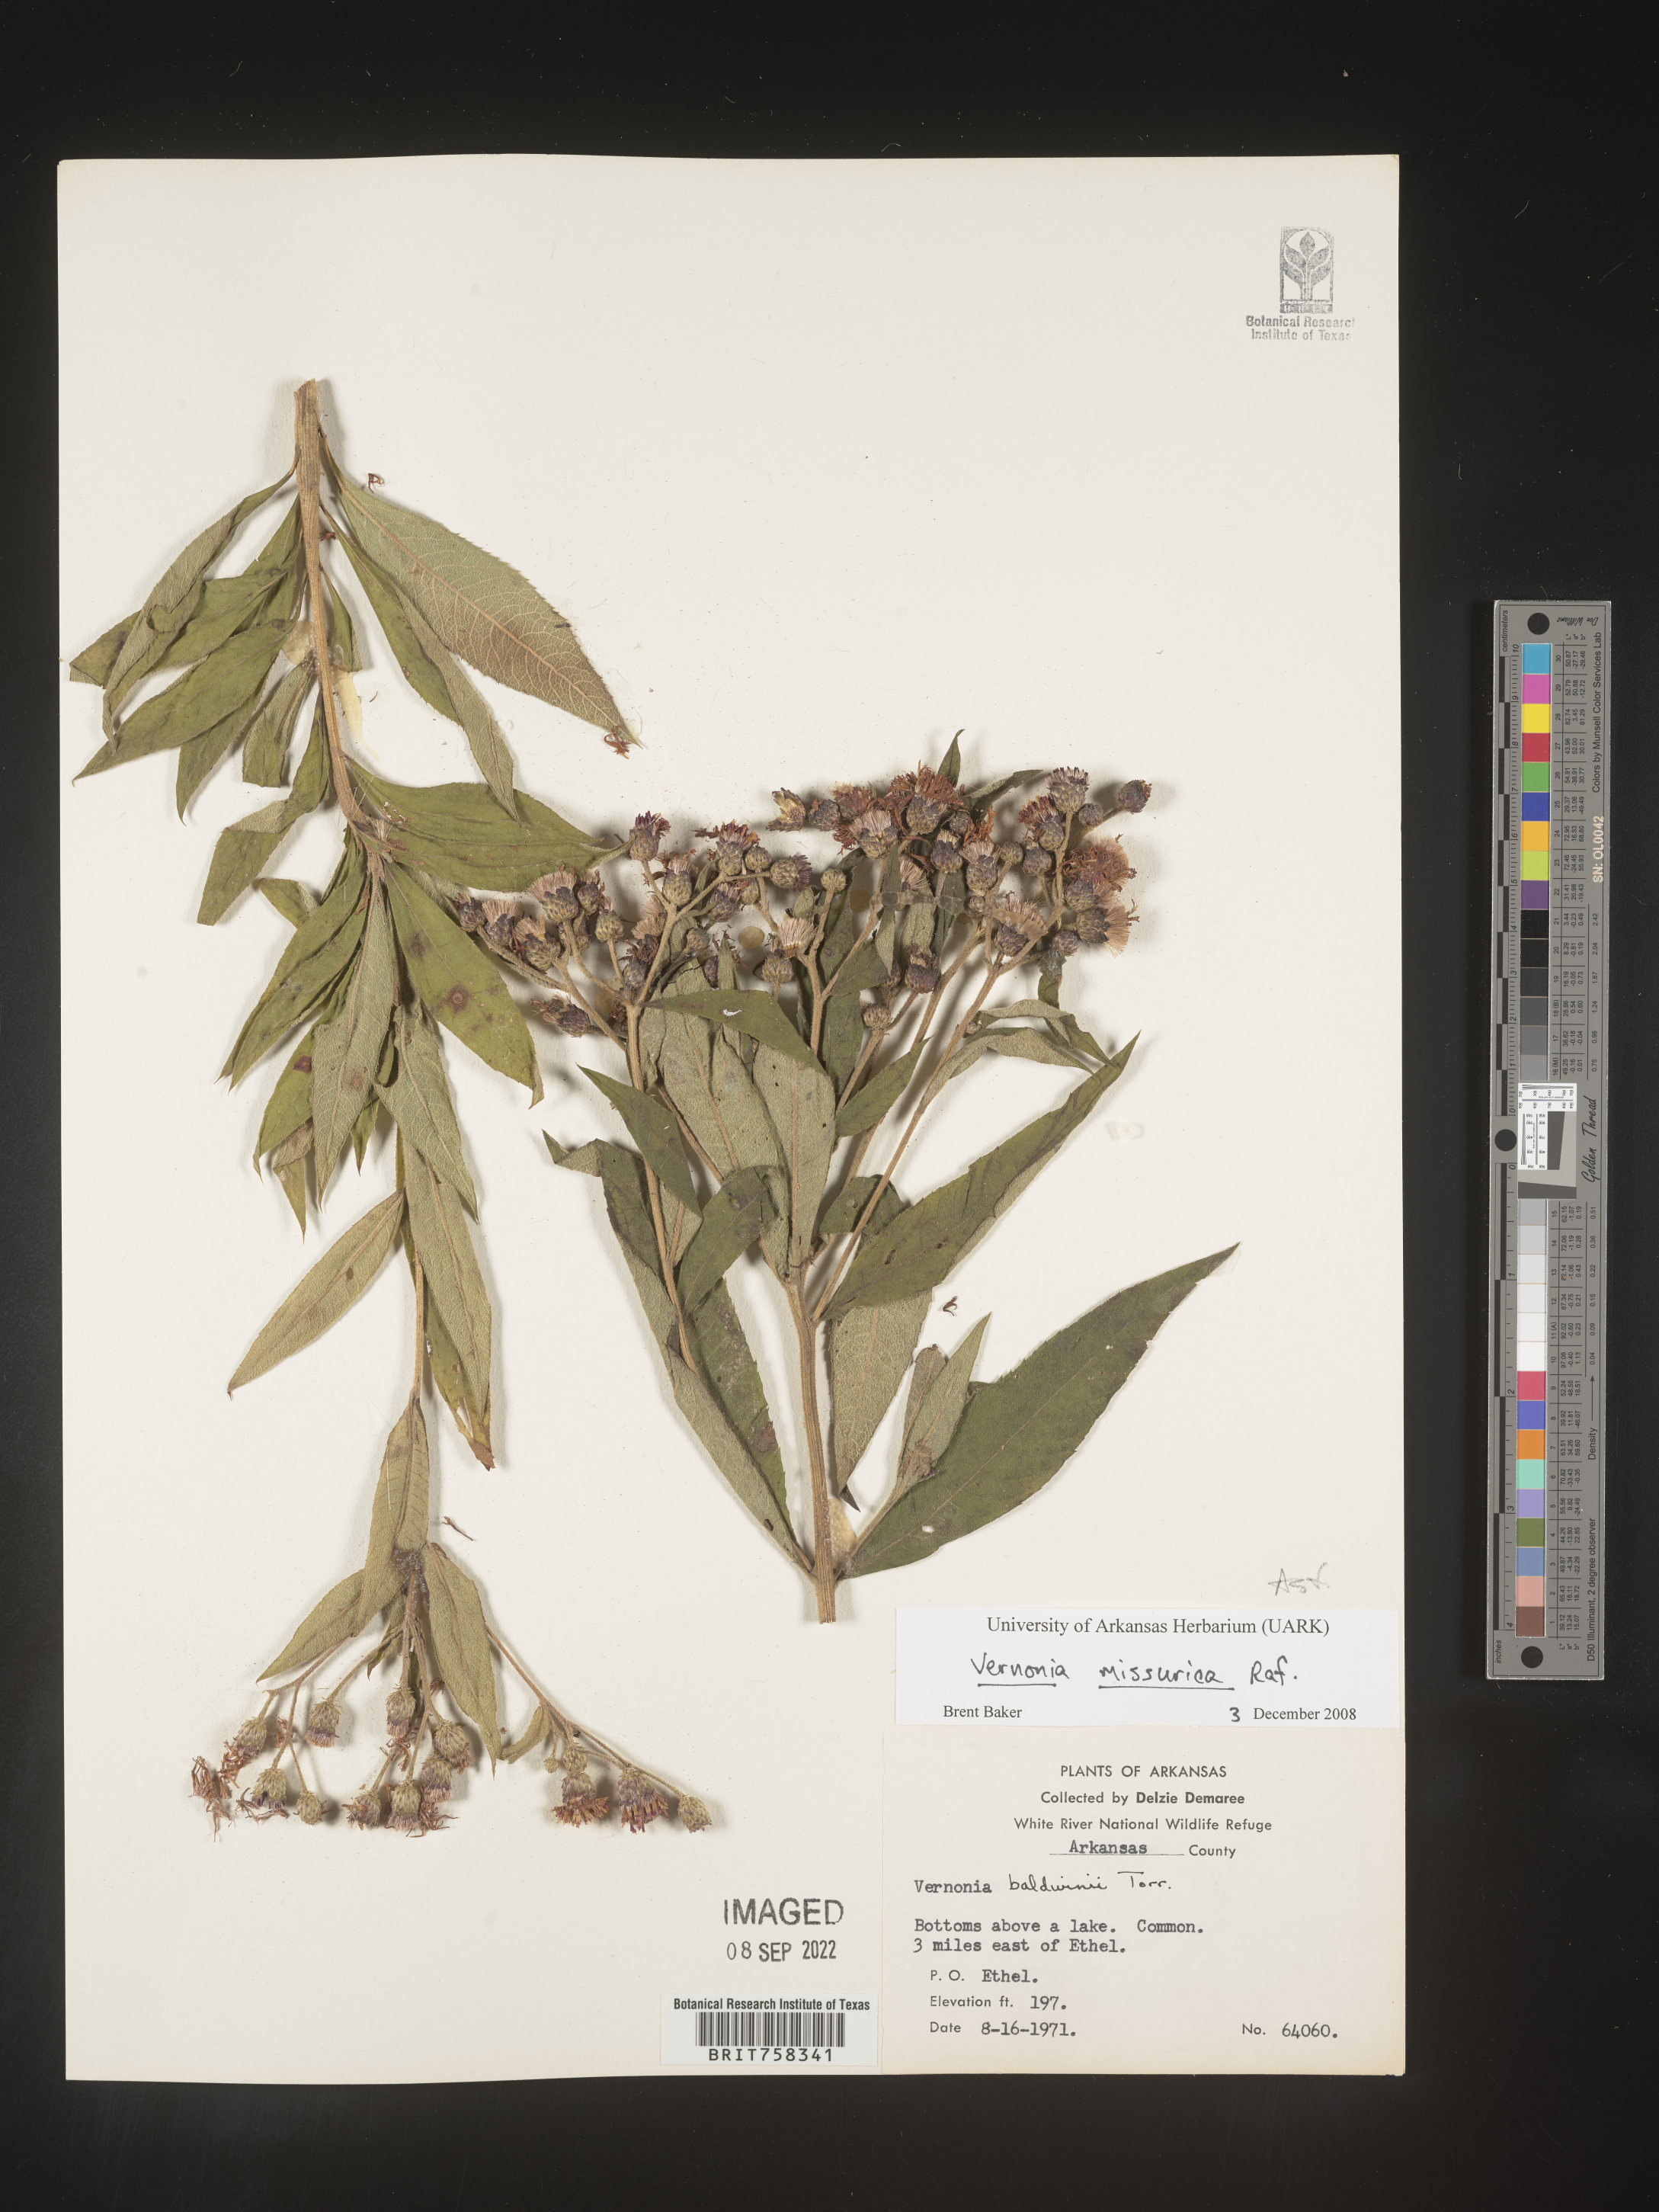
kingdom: Plantae
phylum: Tracheophyta
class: Magnoliopsida
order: Asterales
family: Asteraceae
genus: Vernonia
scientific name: Vernonia missurica
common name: Missouri ironweed
